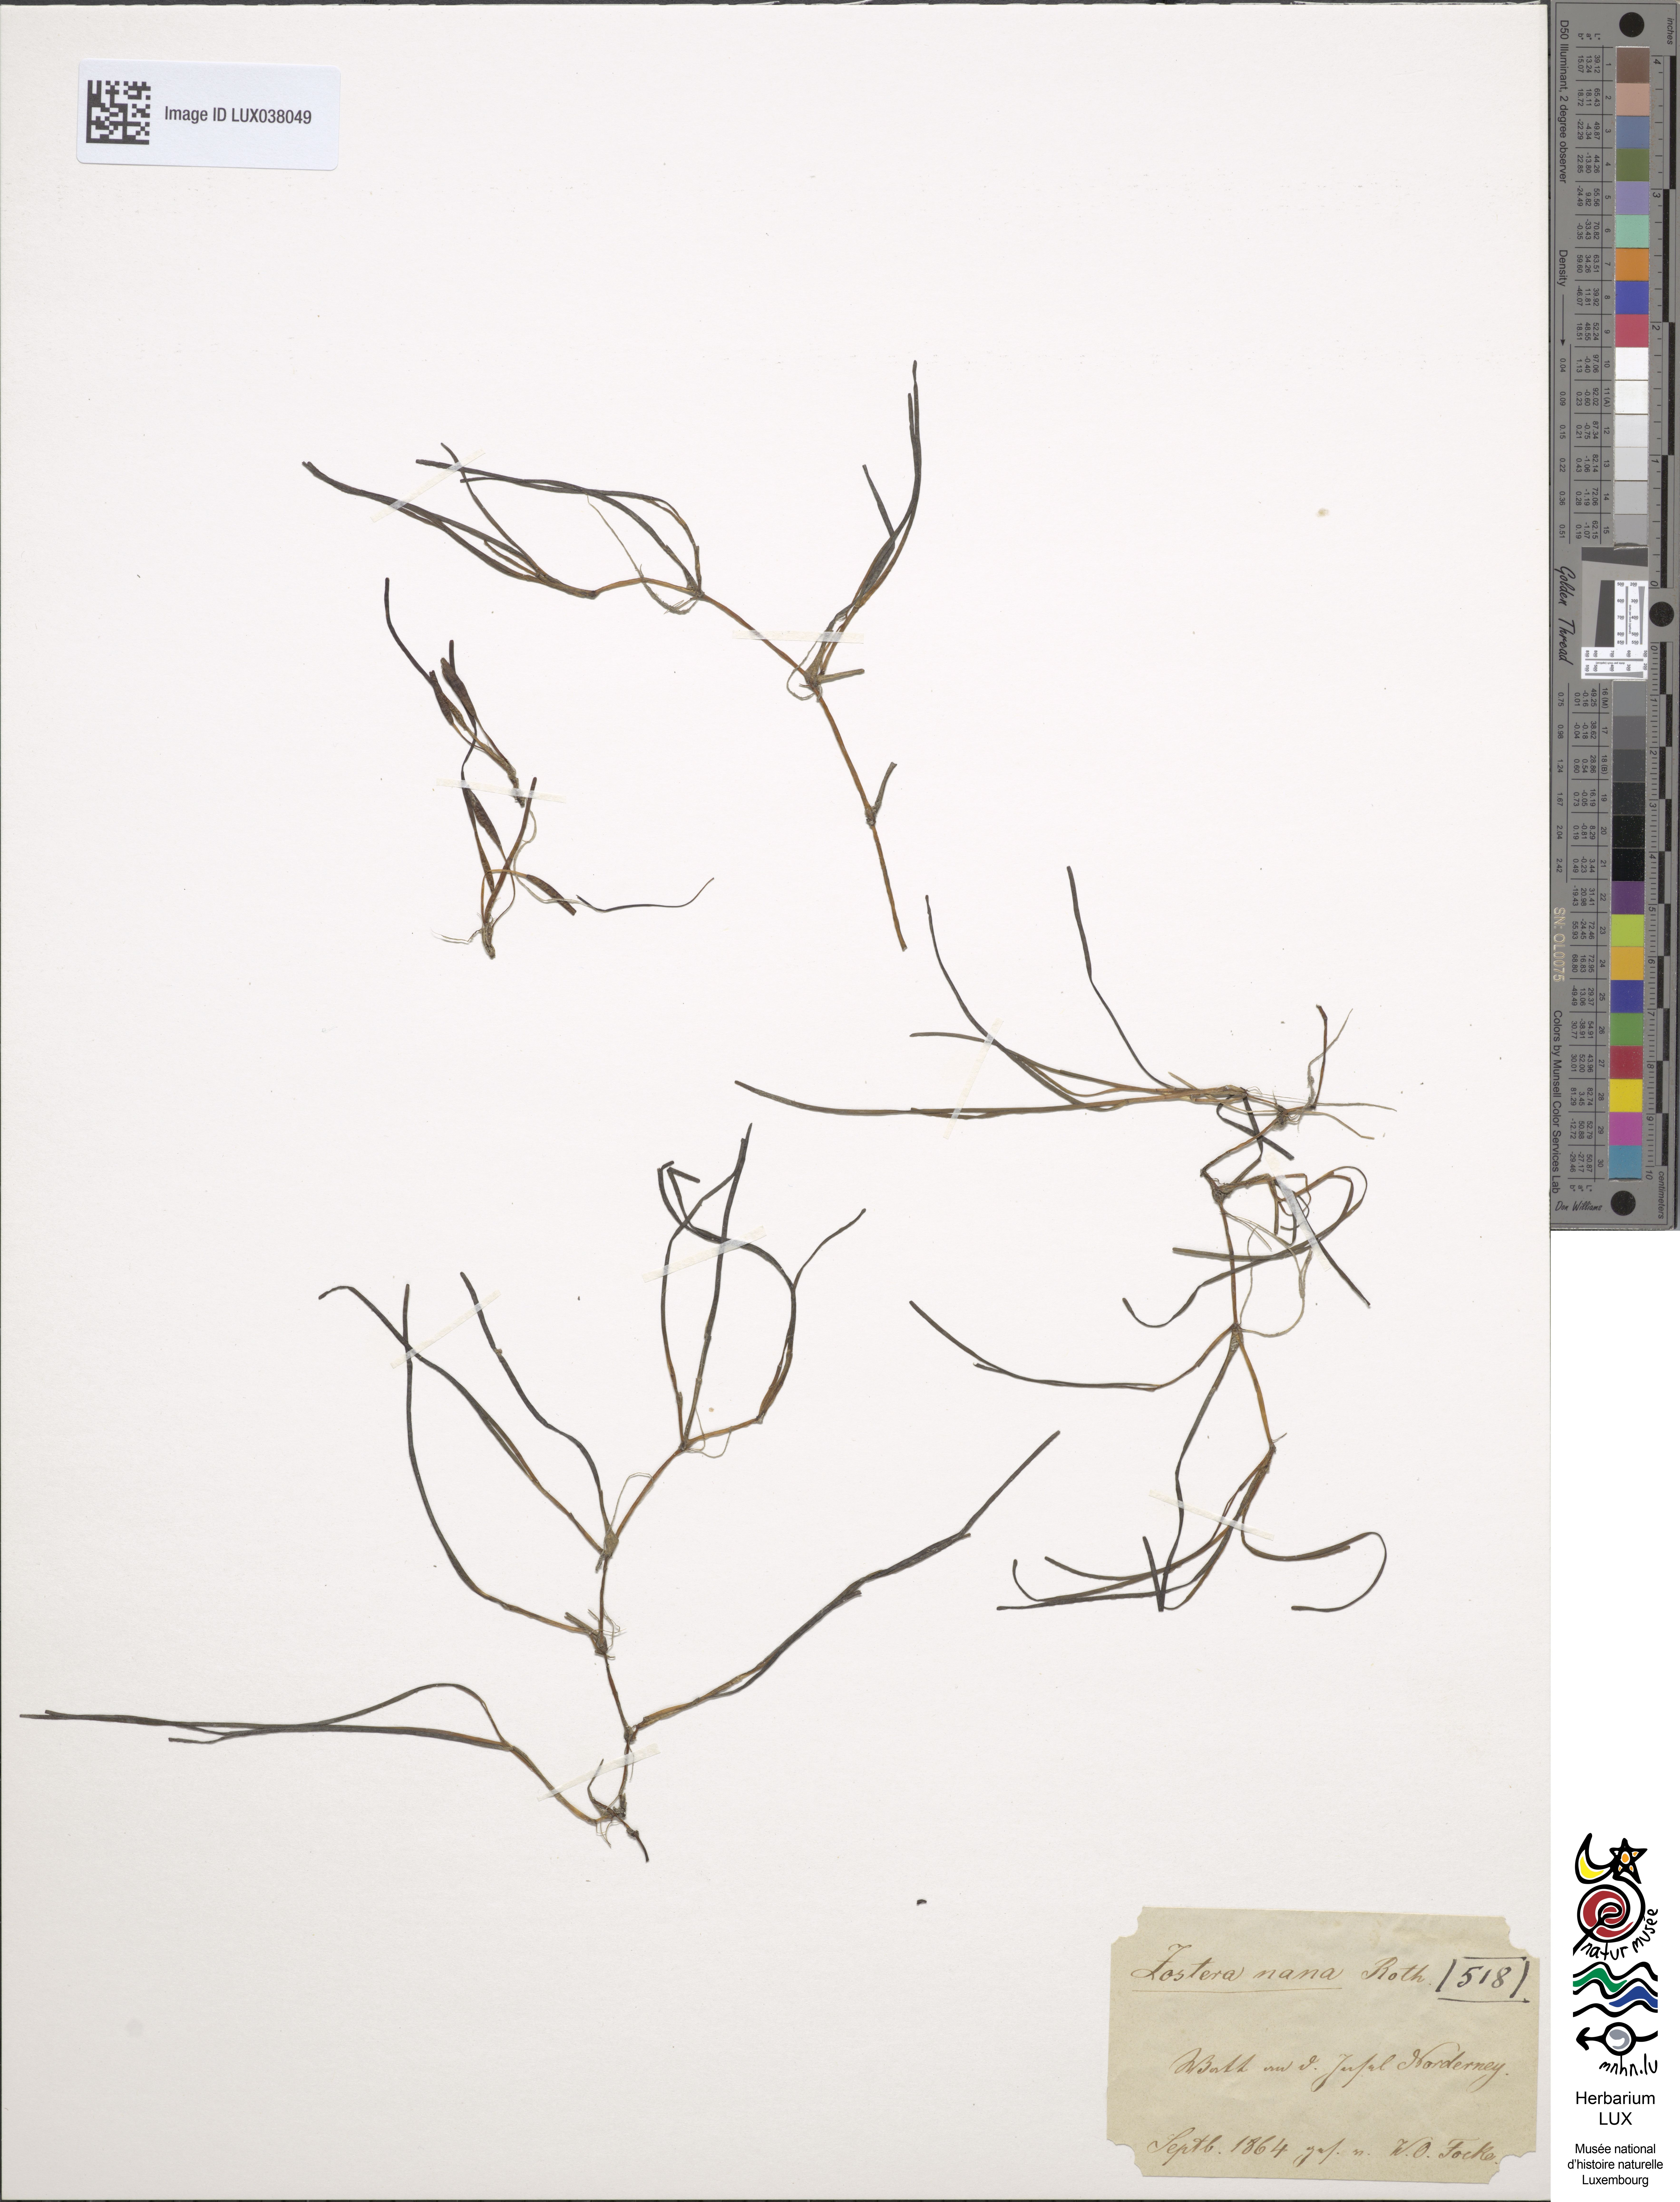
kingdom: Plantae
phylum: Tracheophyta
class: Liliopsida
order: Alismatales
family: Zosteraceae
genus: Zostera
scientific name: Zostera noltii
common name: Dwarf eelgrass
